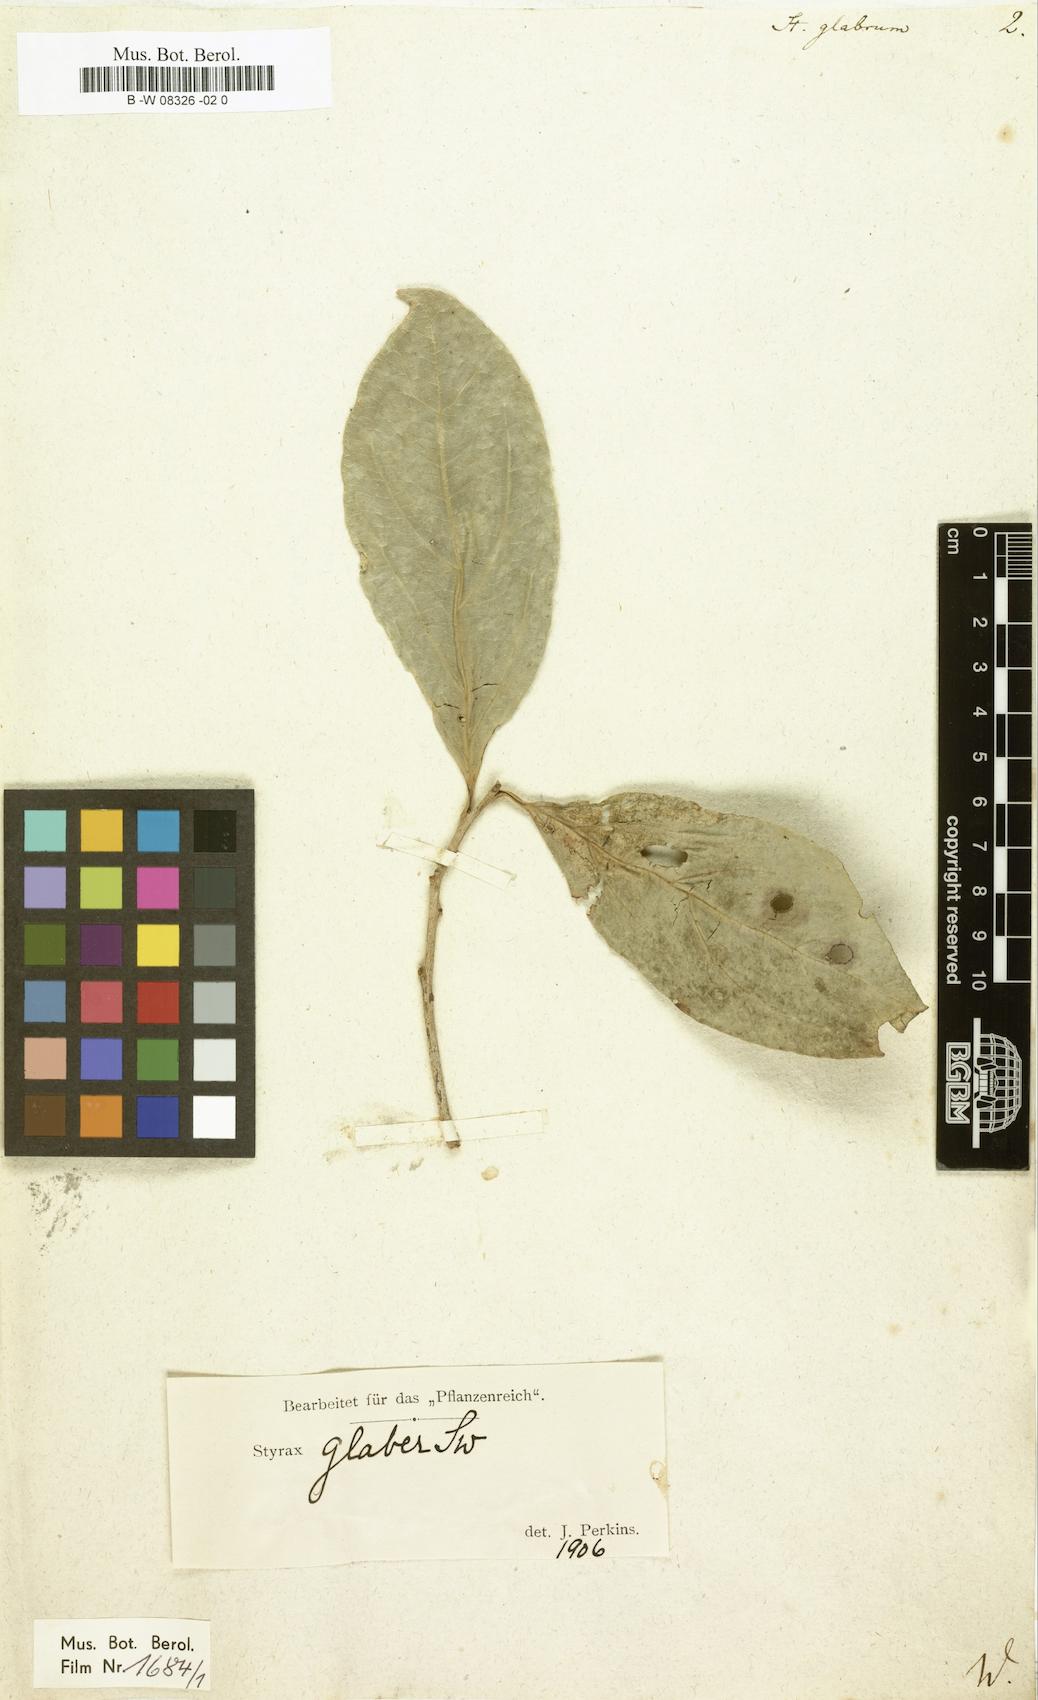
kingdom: Plantae
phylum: Tracheophyta
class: Magnoliopsida
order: Ericales
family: Styracaceae
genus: Styrax
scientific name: Styrax glaber
